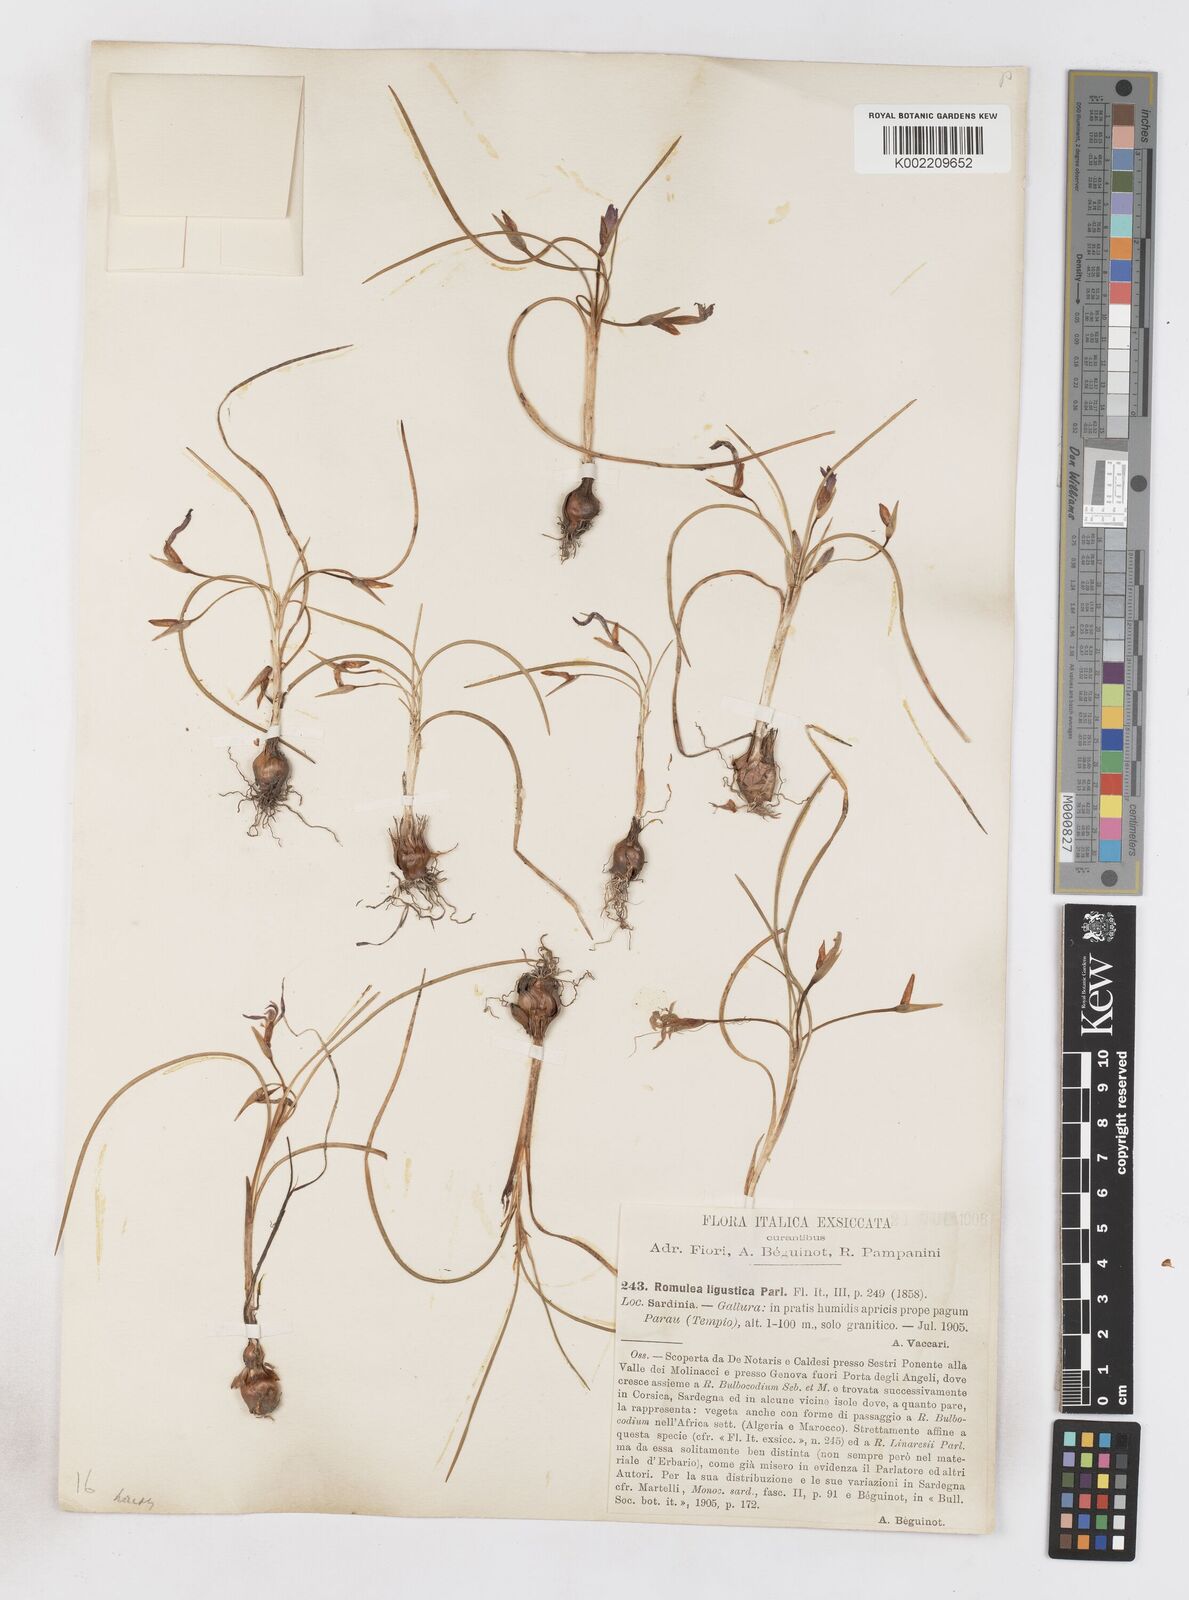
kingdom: Plantae
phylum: Tracheophyta
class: Liliopsida
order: Asparagales
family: Iridaceae
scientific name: Iridaceae
